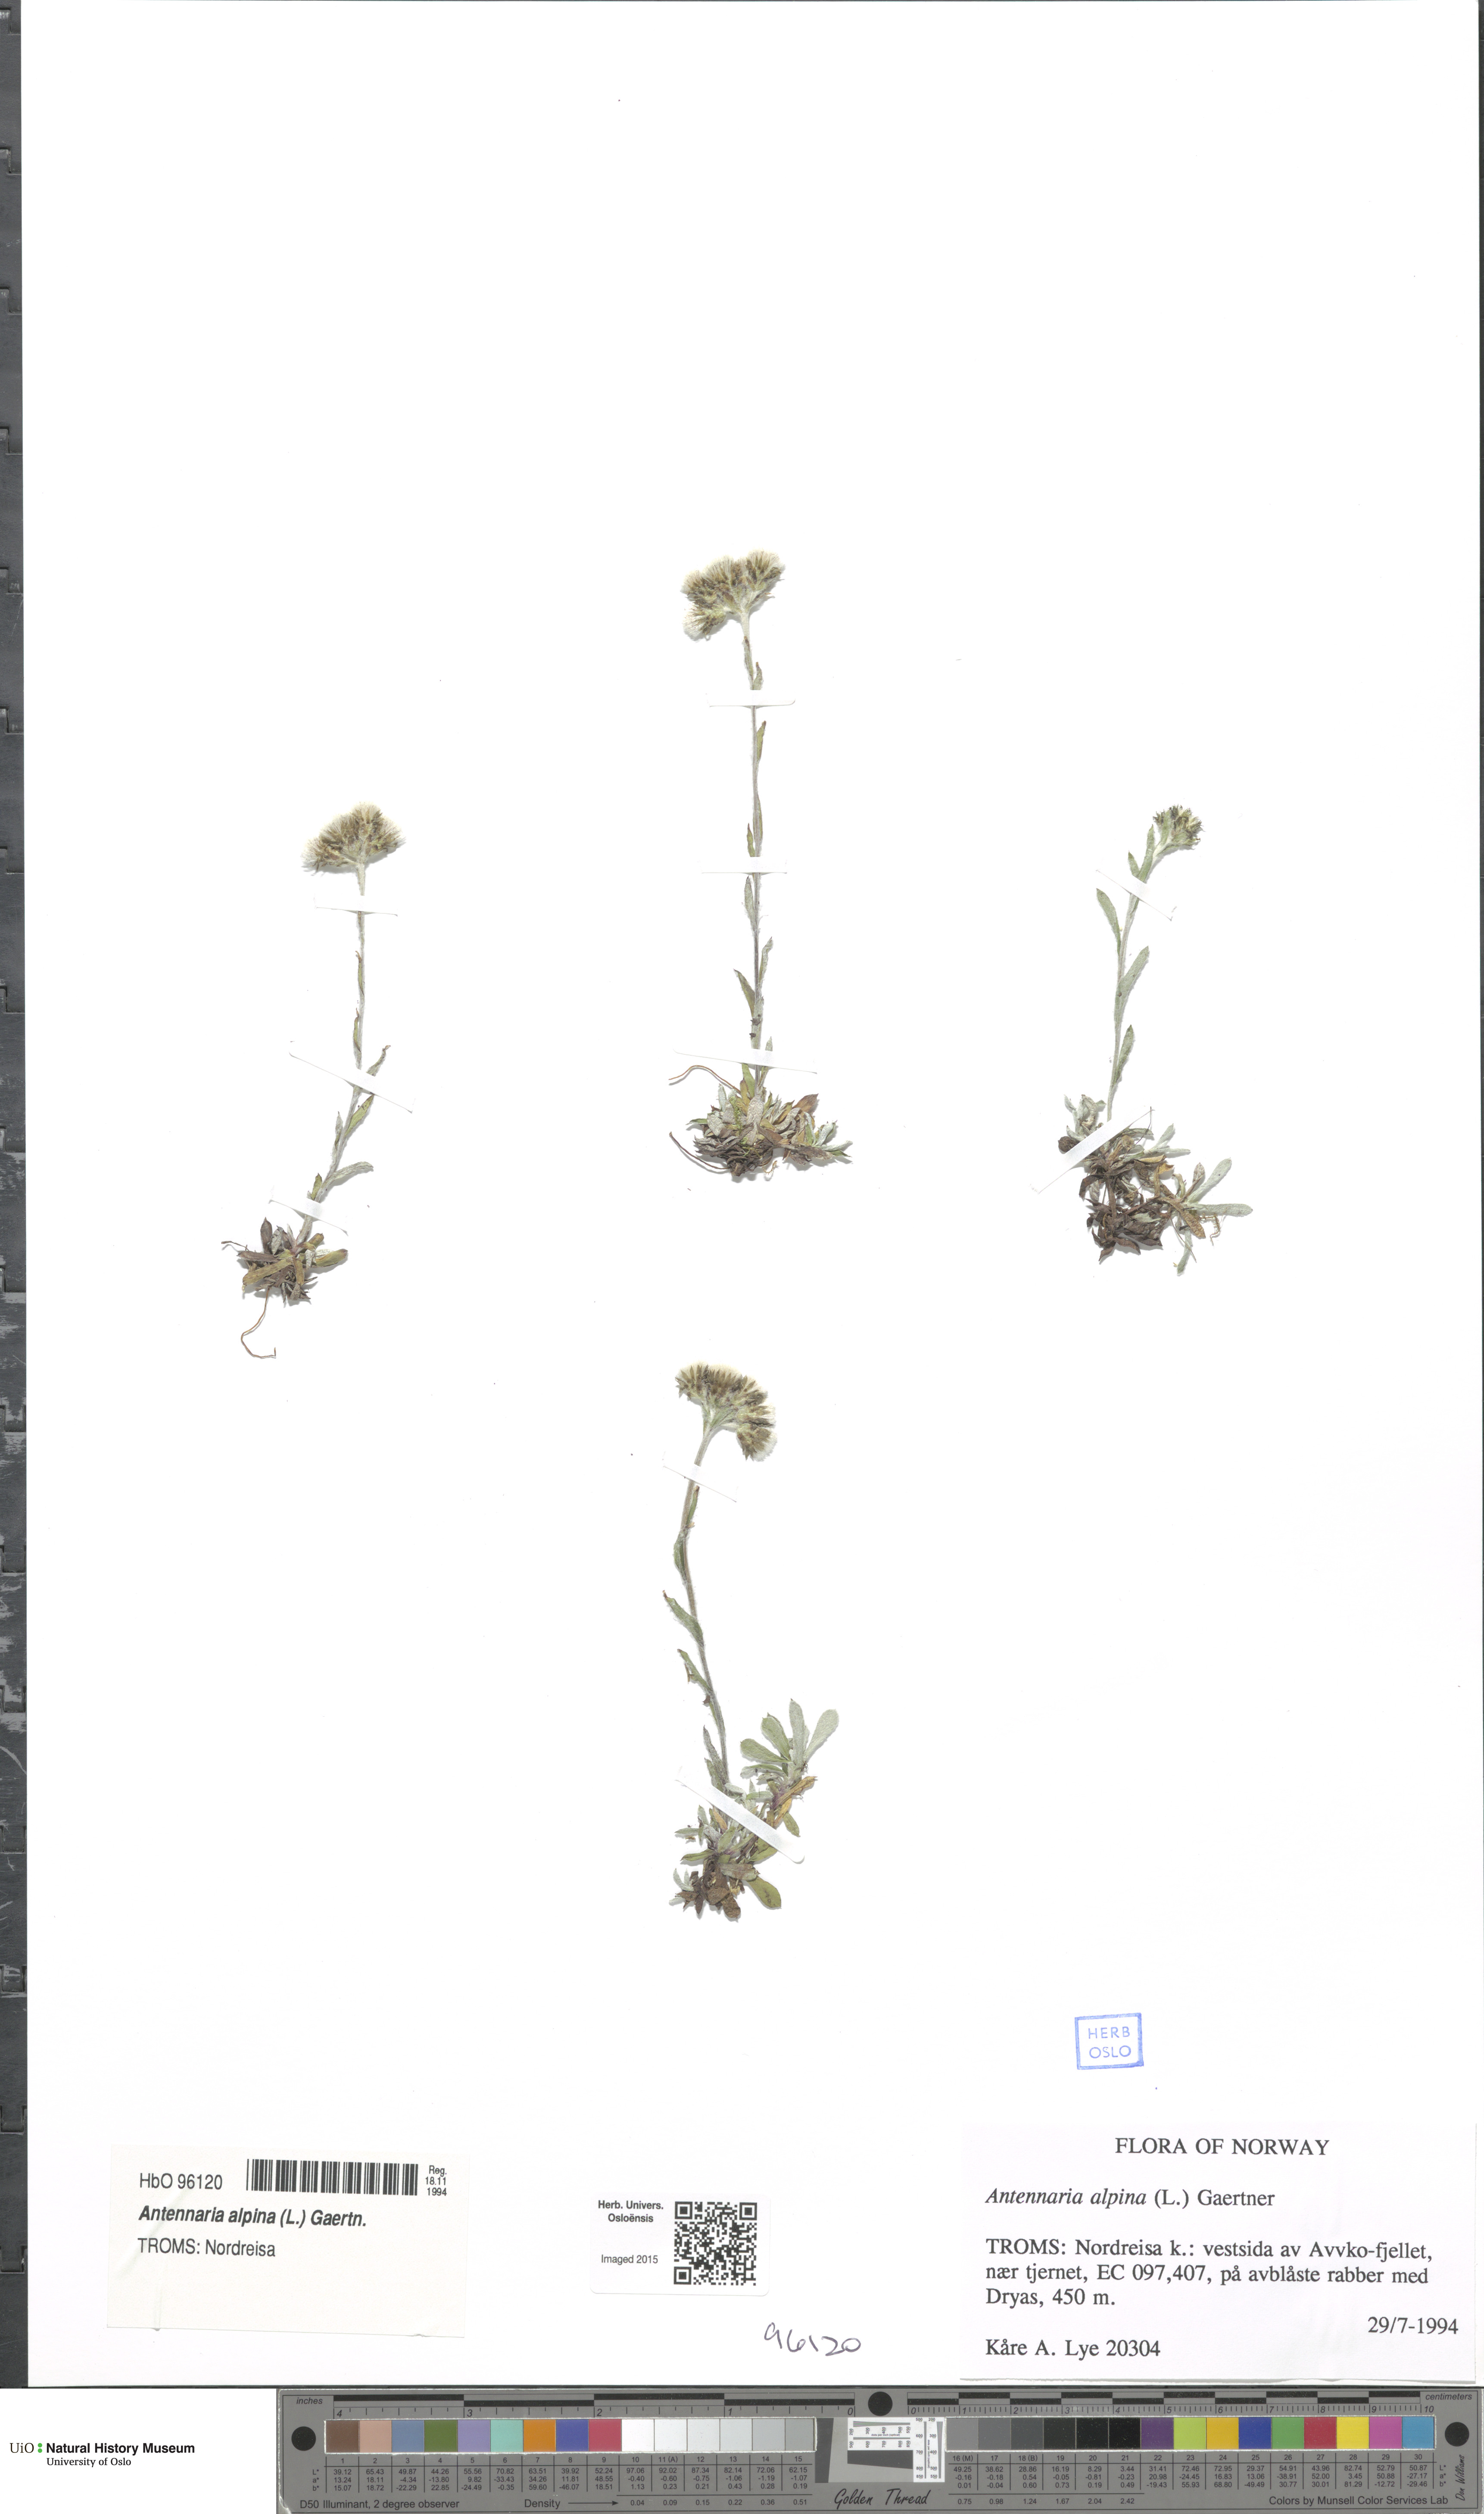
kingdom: Plantae
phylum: Tracheophyta
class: Magnoliopsida
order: Asterales
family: Asteraceae
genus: Antennaria
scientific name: Antennaria alpina
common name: Alpine pussytoes
